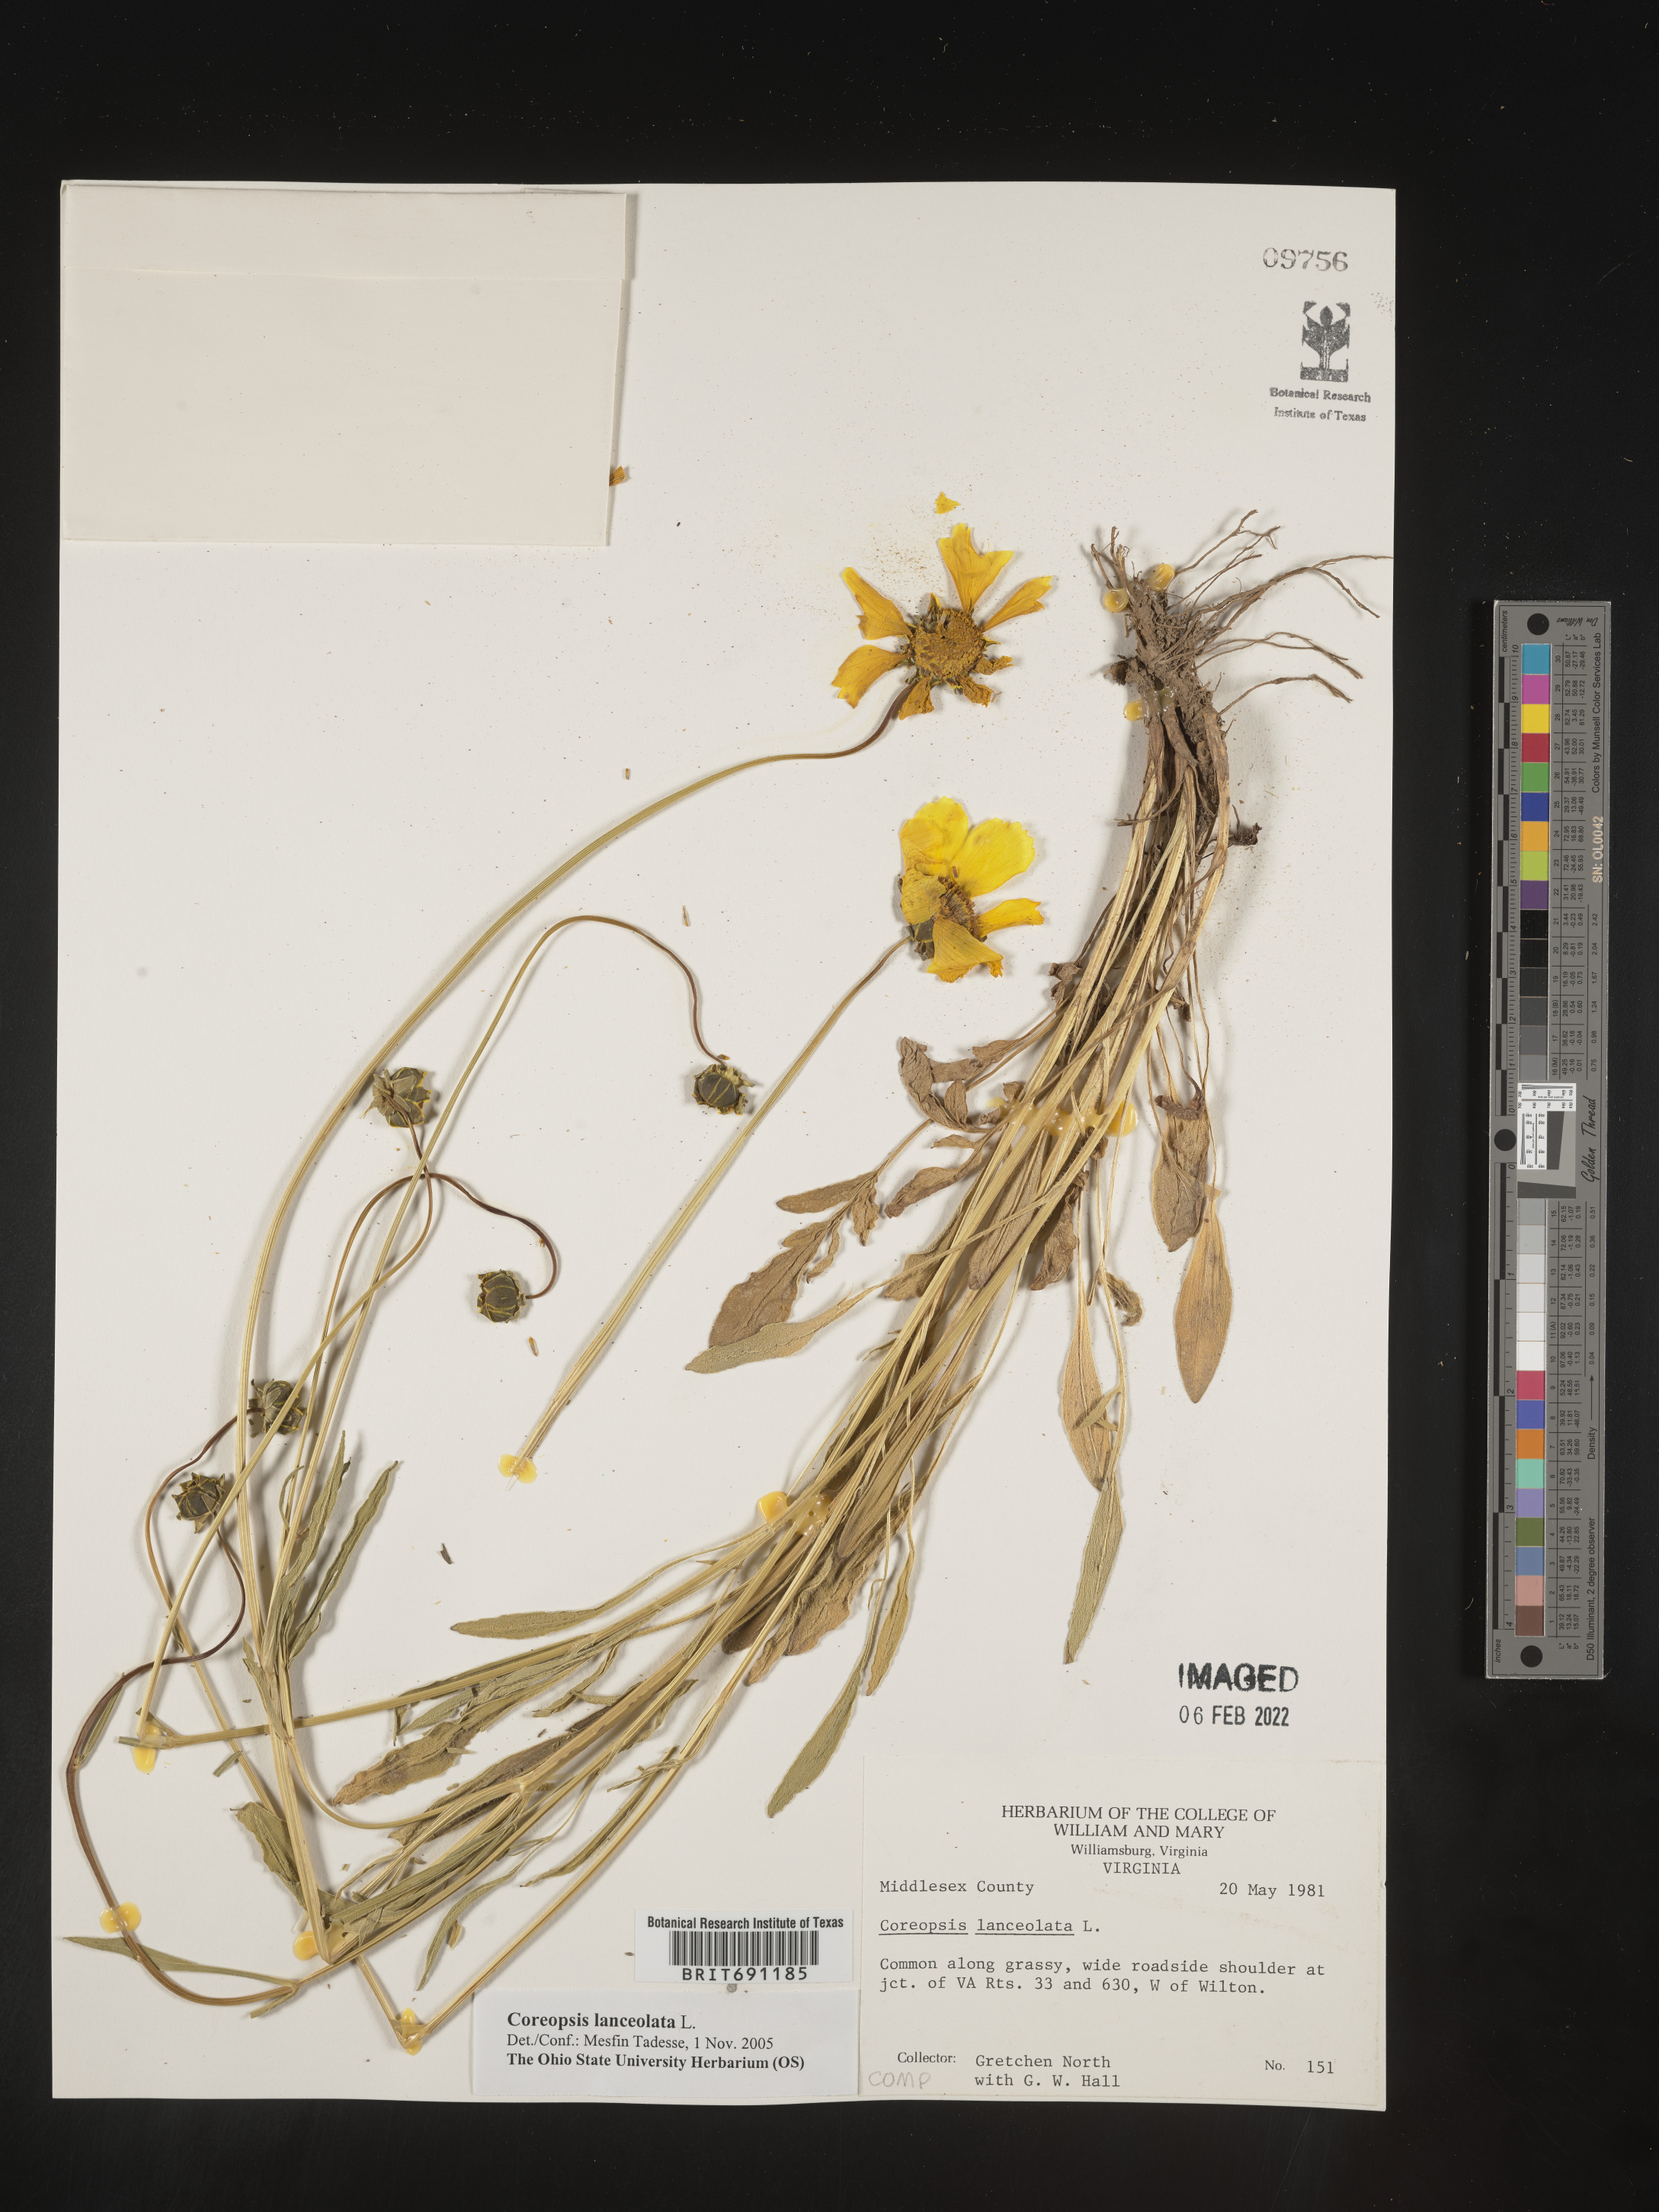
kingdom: Plantae
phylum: Tracheophyta
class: Magnoliopsida
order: Asterales
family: Asteraceae
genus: Coreopsis
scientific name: Coreopsis lanceolata
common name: Garden coreopsis
